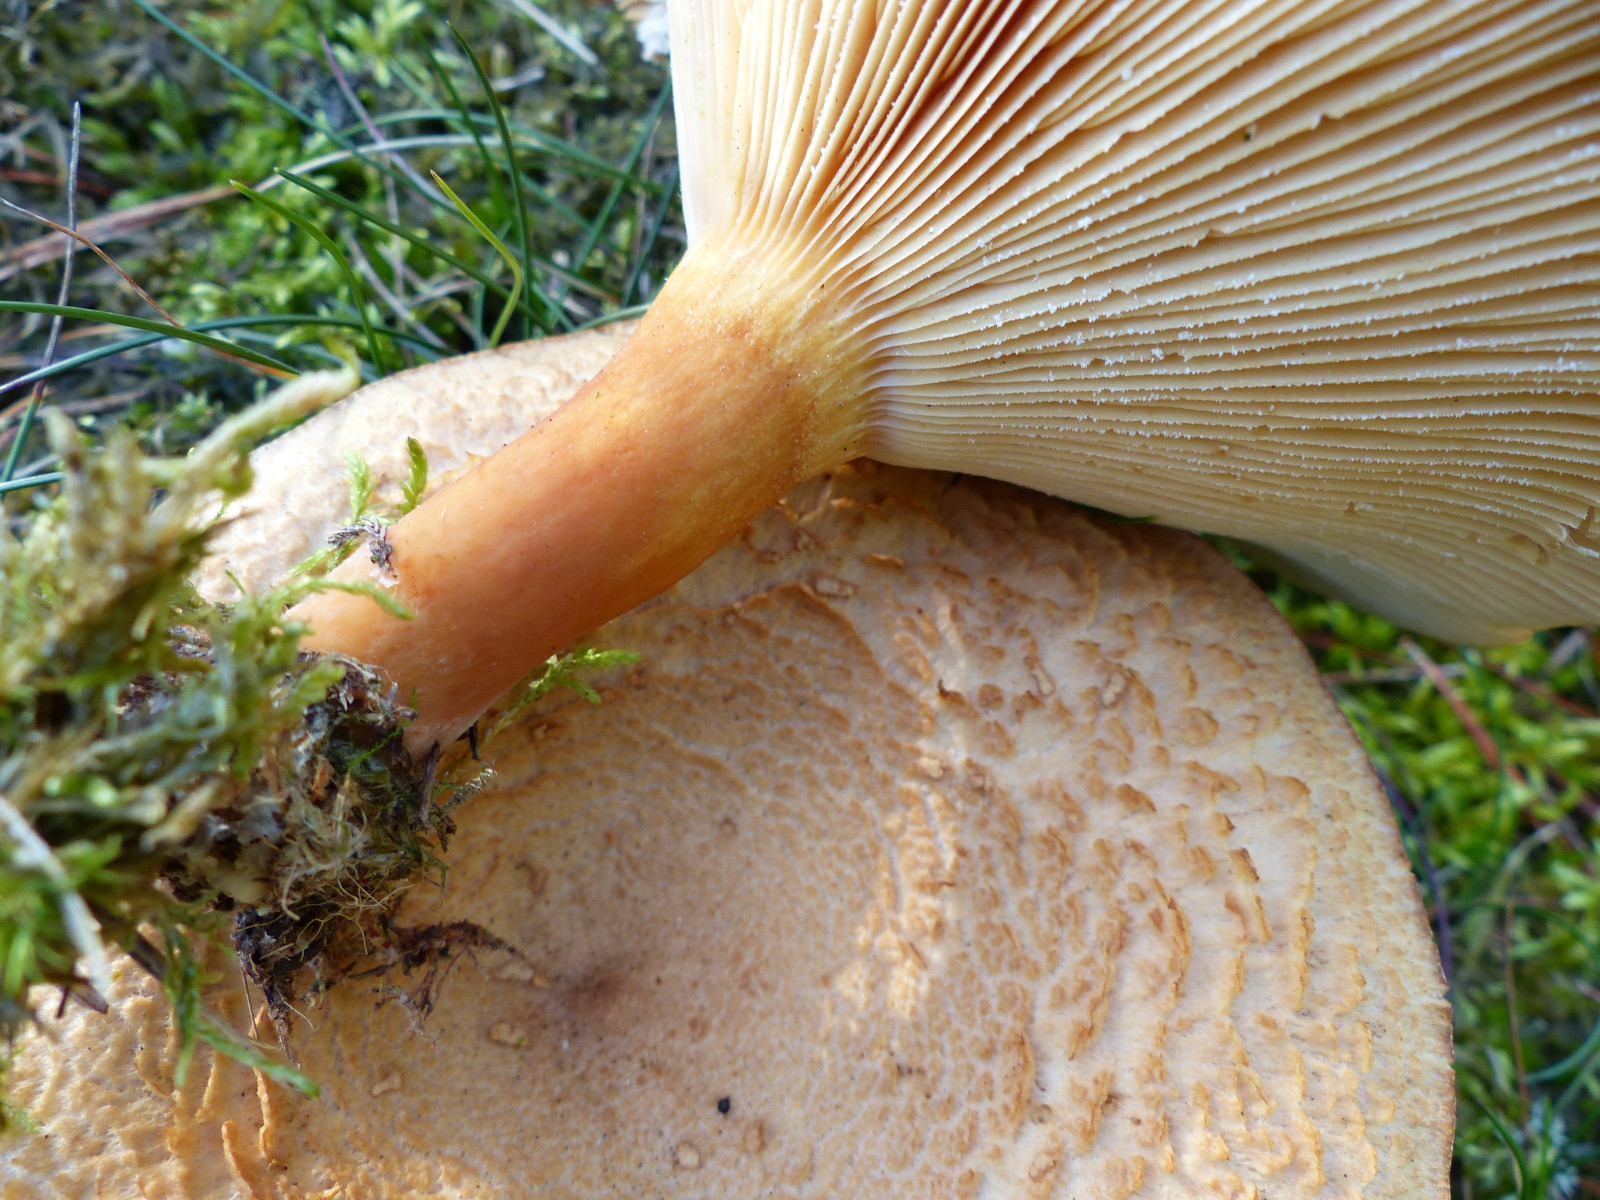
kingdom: Fungi
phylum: Basidiomycota
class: Agaricomycetes
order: Russulales
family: Russulaceae
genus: Lactarius
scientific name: Lactarius helvus
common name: mose-mælkehat
